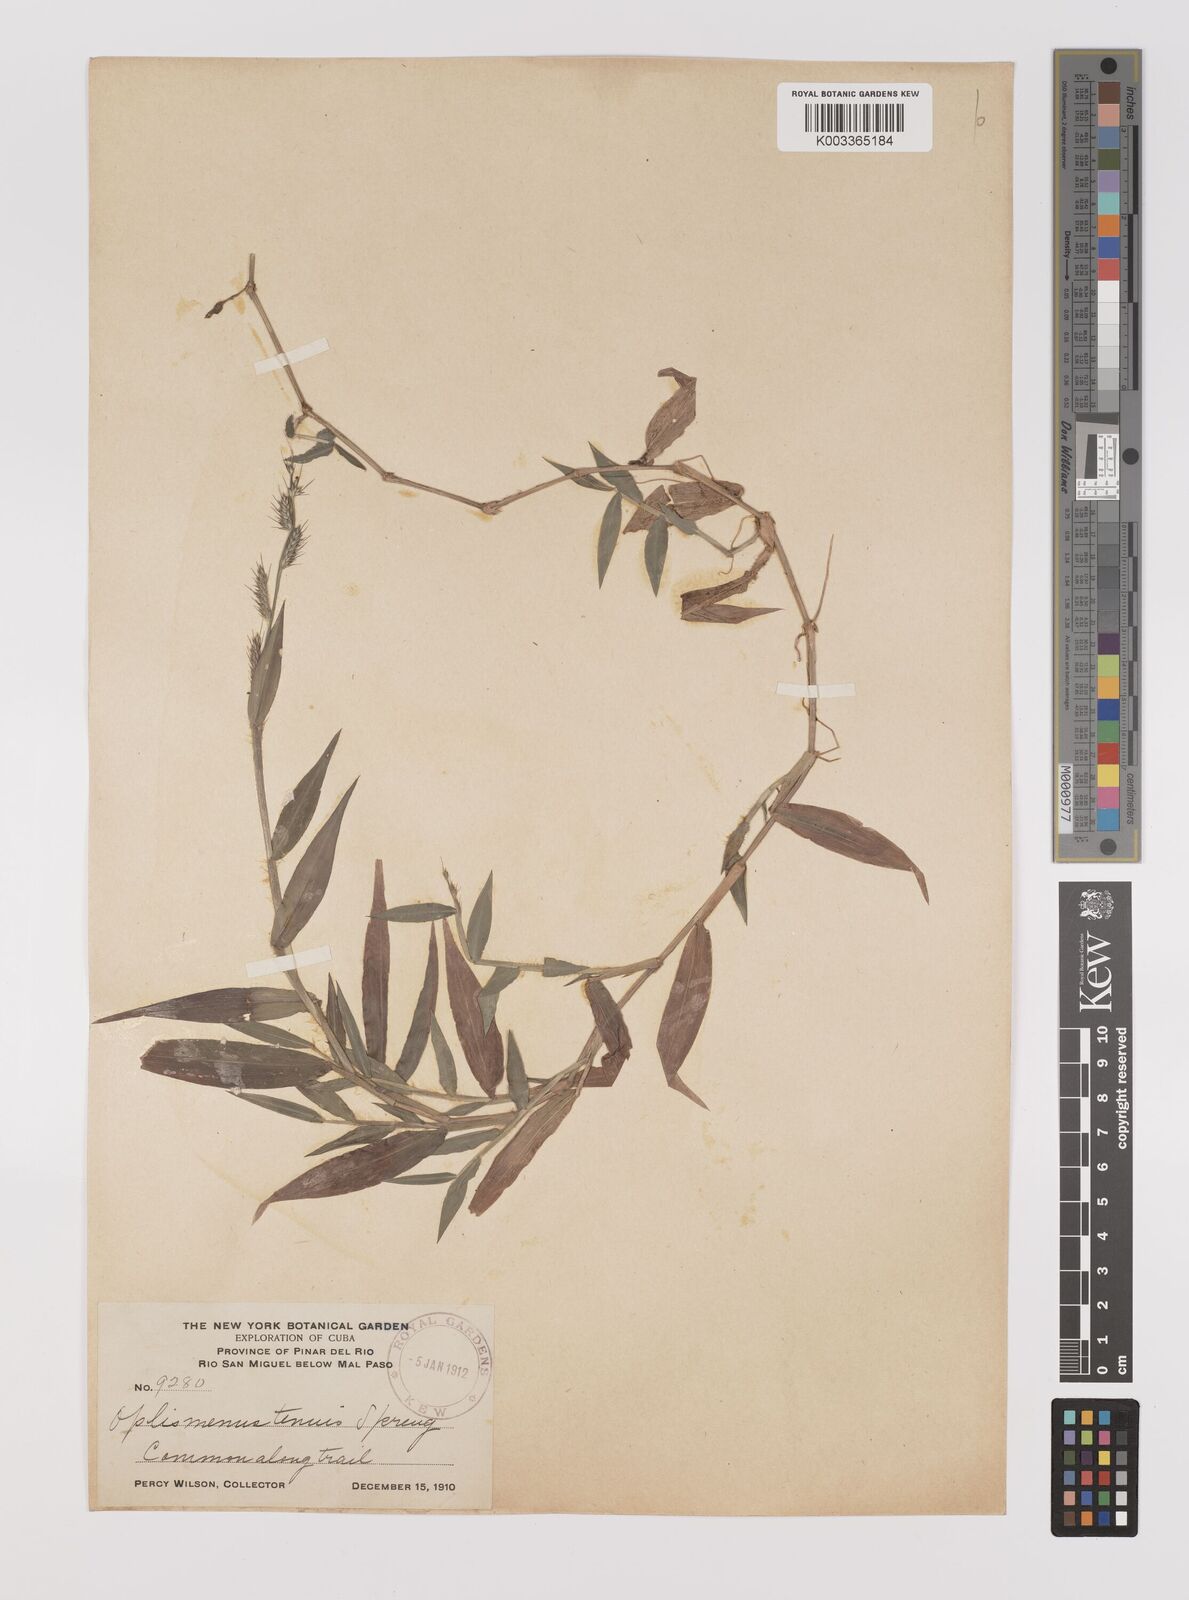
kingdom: Plantae
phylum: Tracheophyta
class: Liliopsida
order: Poales
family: Poaceae
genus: Oplismenus
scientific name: Oplismenus hirtellus
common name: Basketgrass
